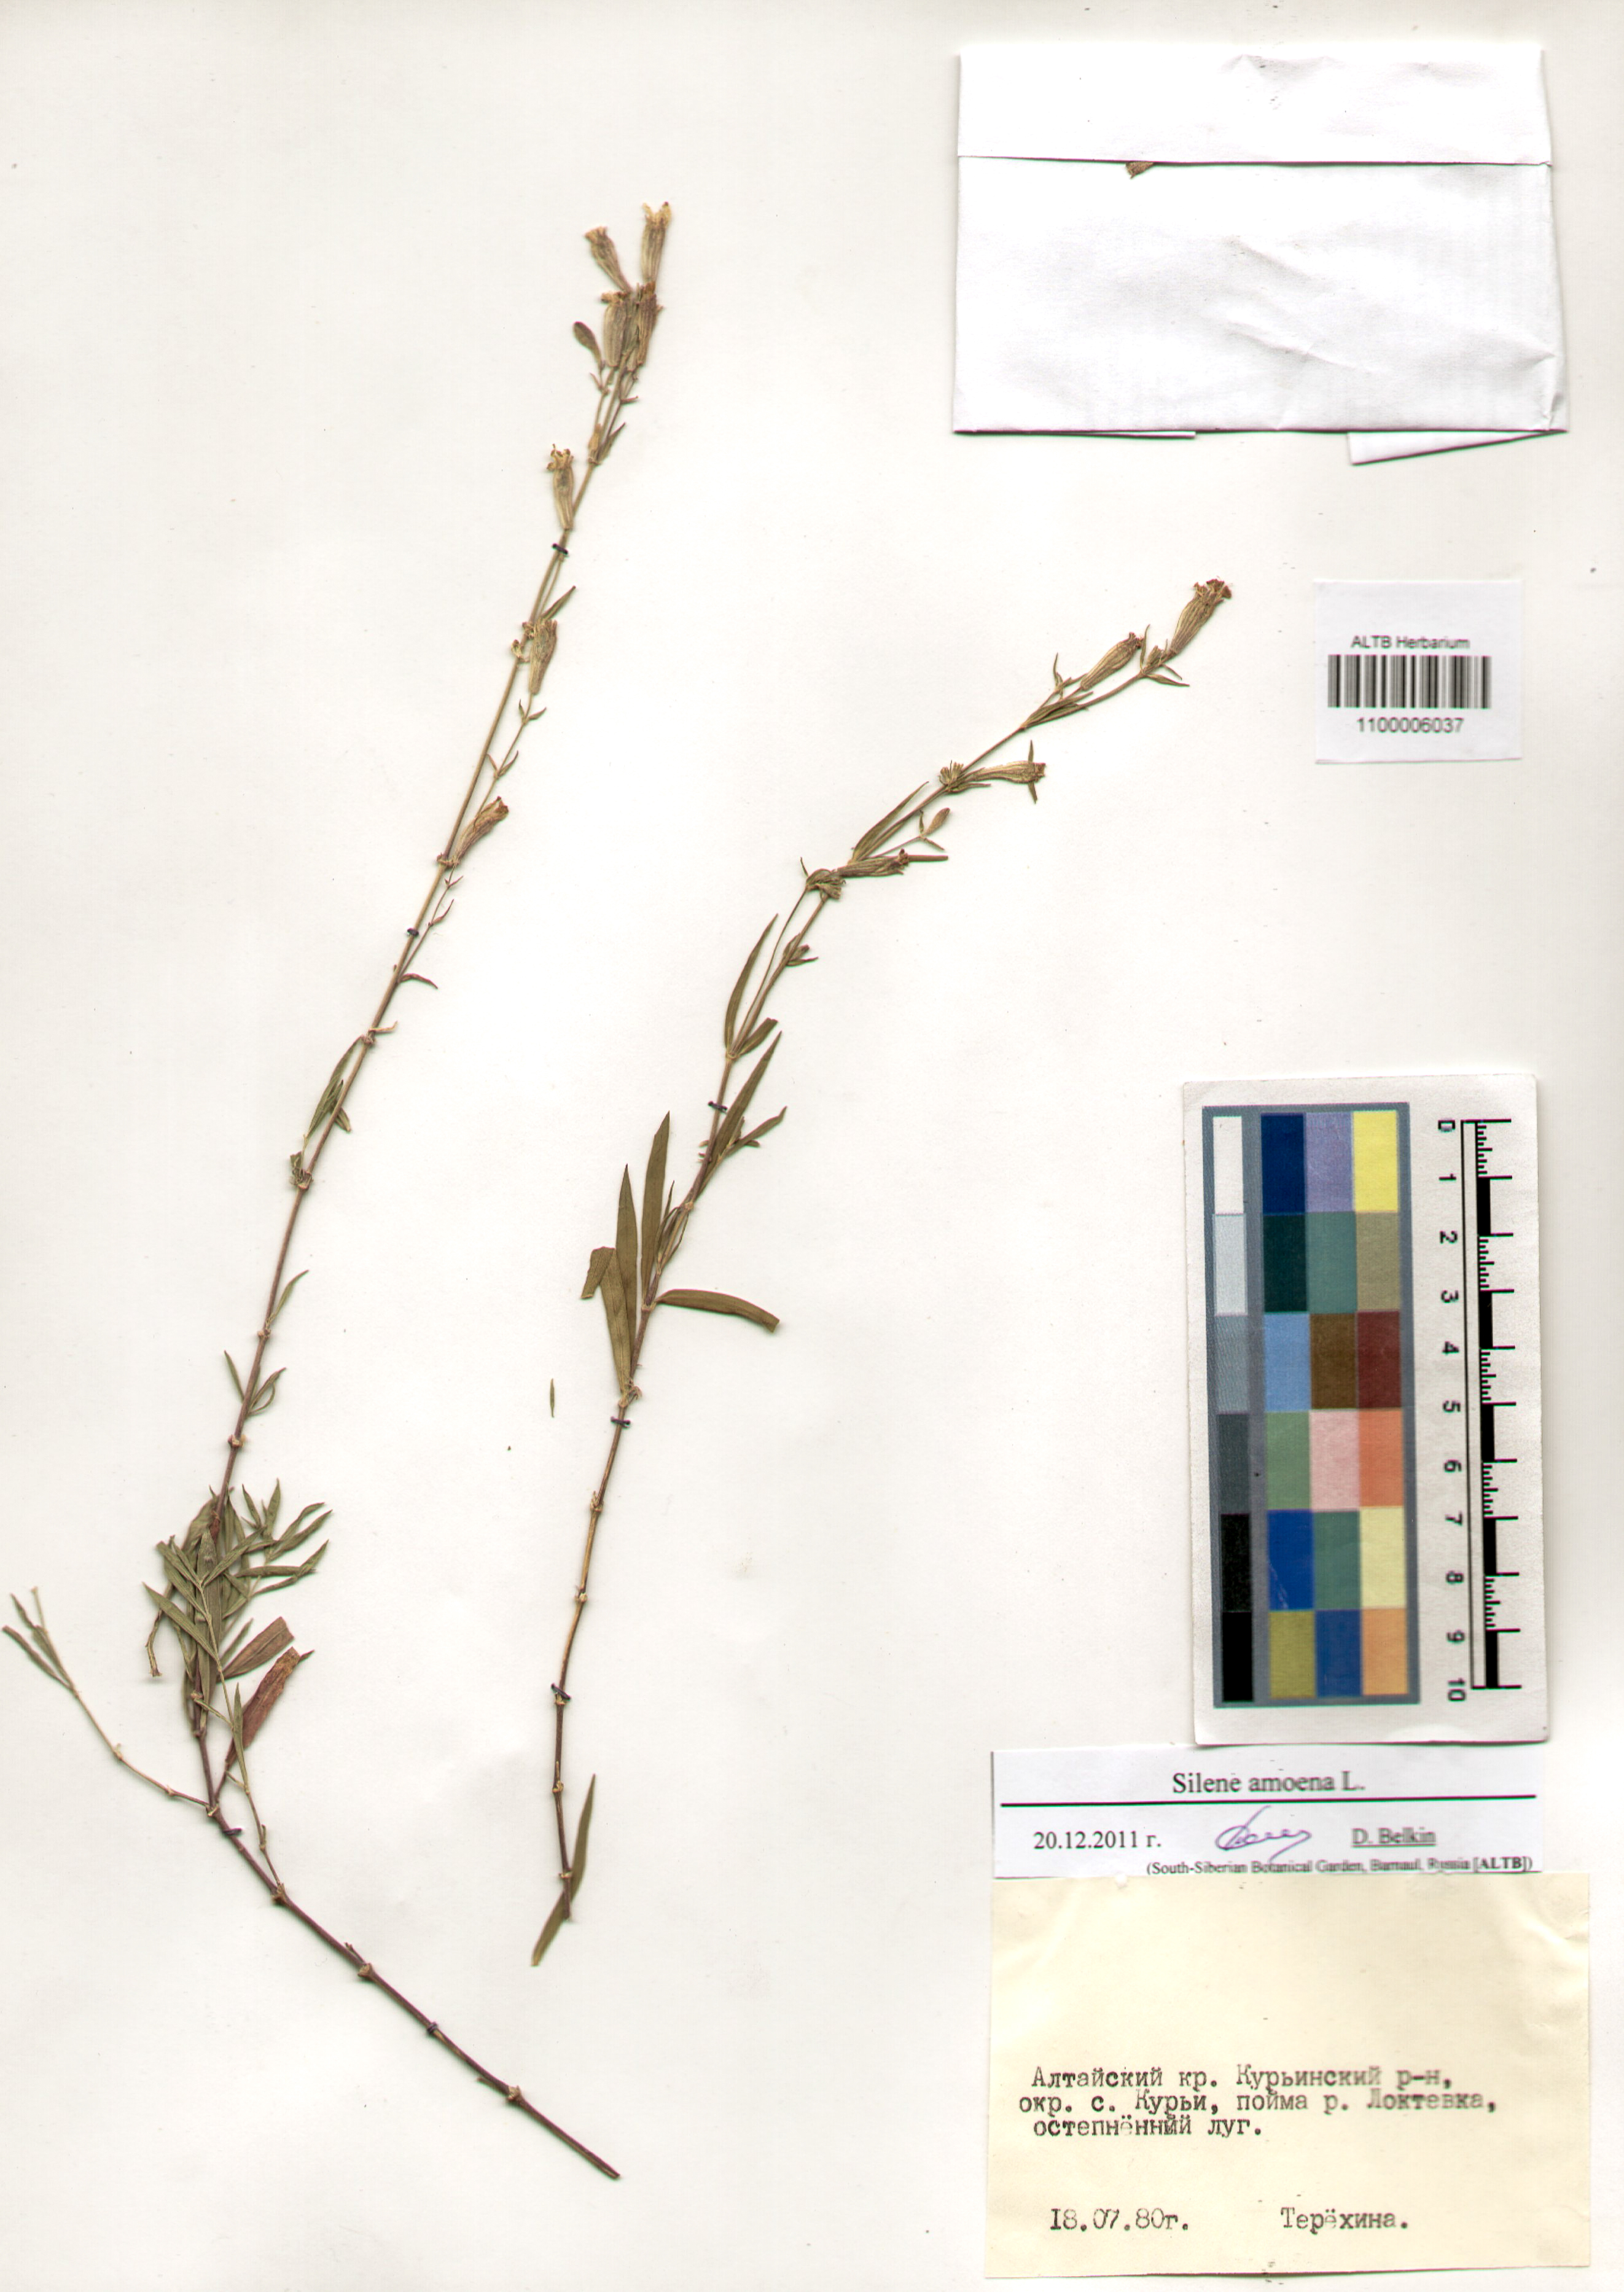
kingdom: Plantae
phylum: Tracheophyta
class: Magnoliopsida
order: Caryophyllales
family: Caryophyllaceae
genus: Silene
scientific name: Silene amoena
